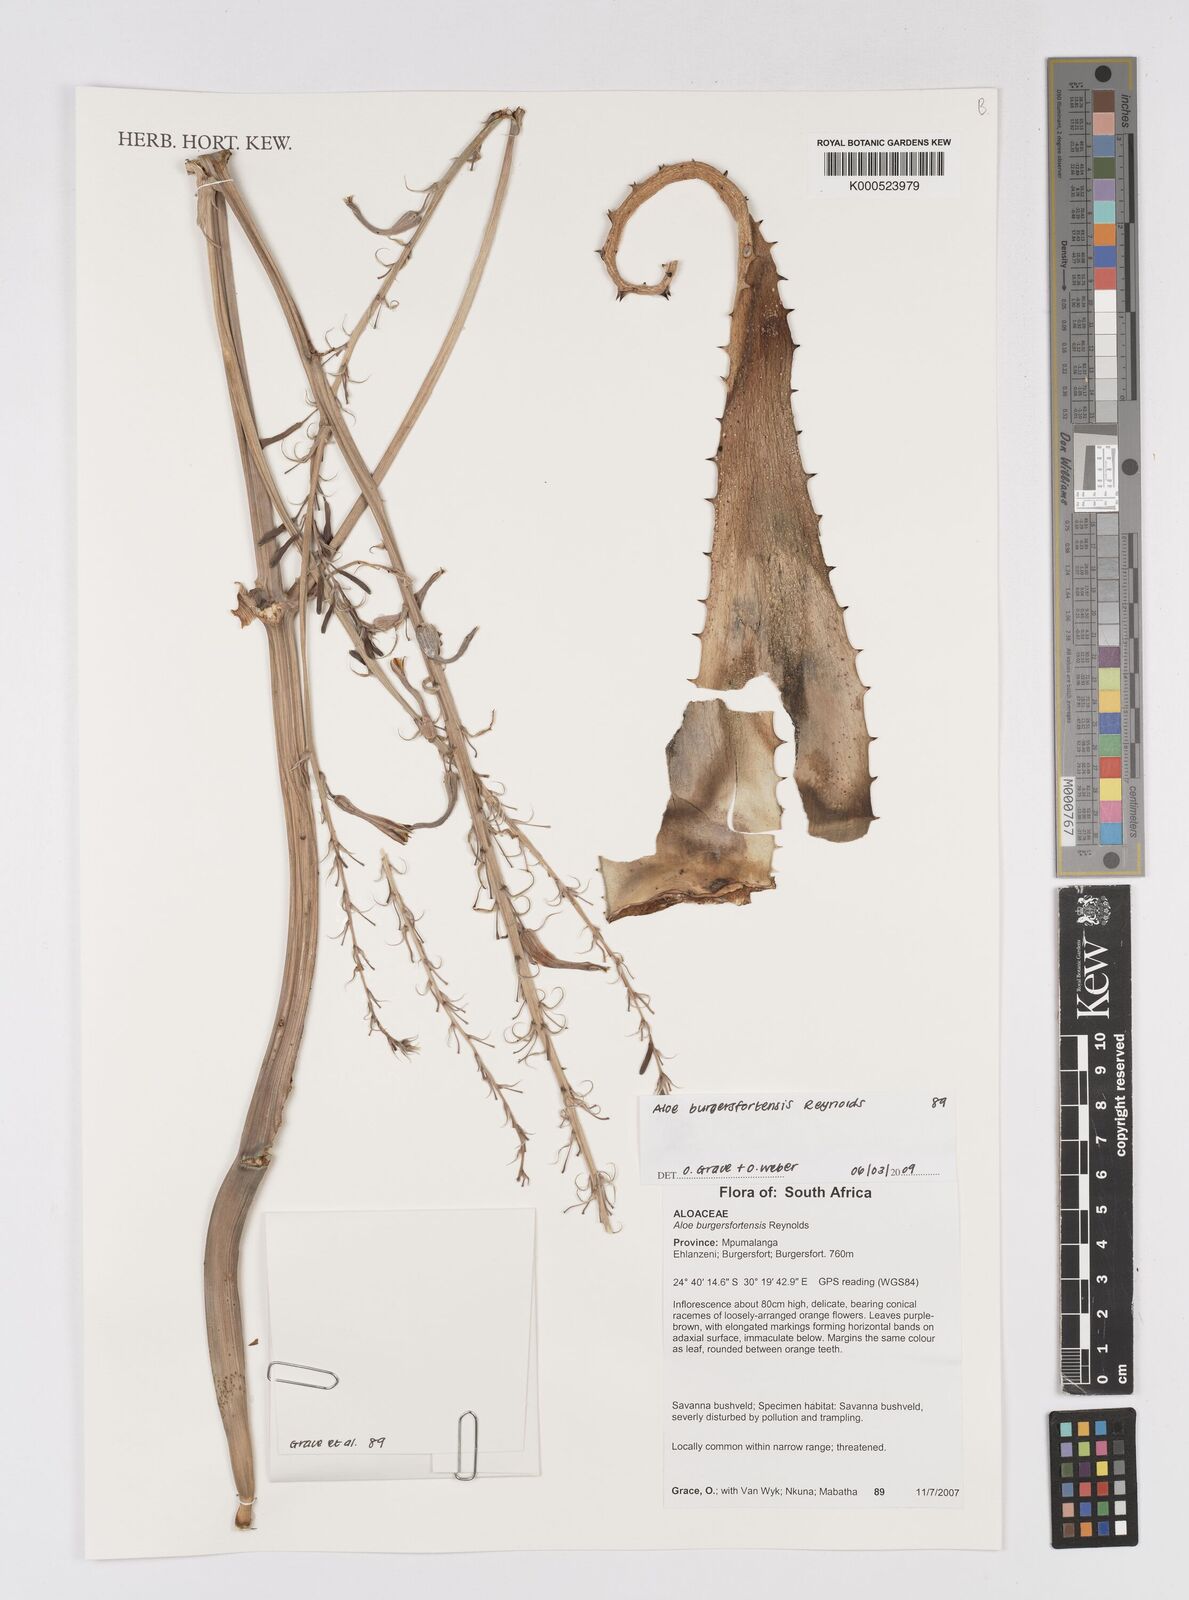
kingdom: Plantae
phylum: Tracheophyta
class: Liliopsida
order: Asparagales
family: Asphodelaceae
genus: Aloe
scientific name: Aloe burgersfortensis
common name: Burgersfort aloe
